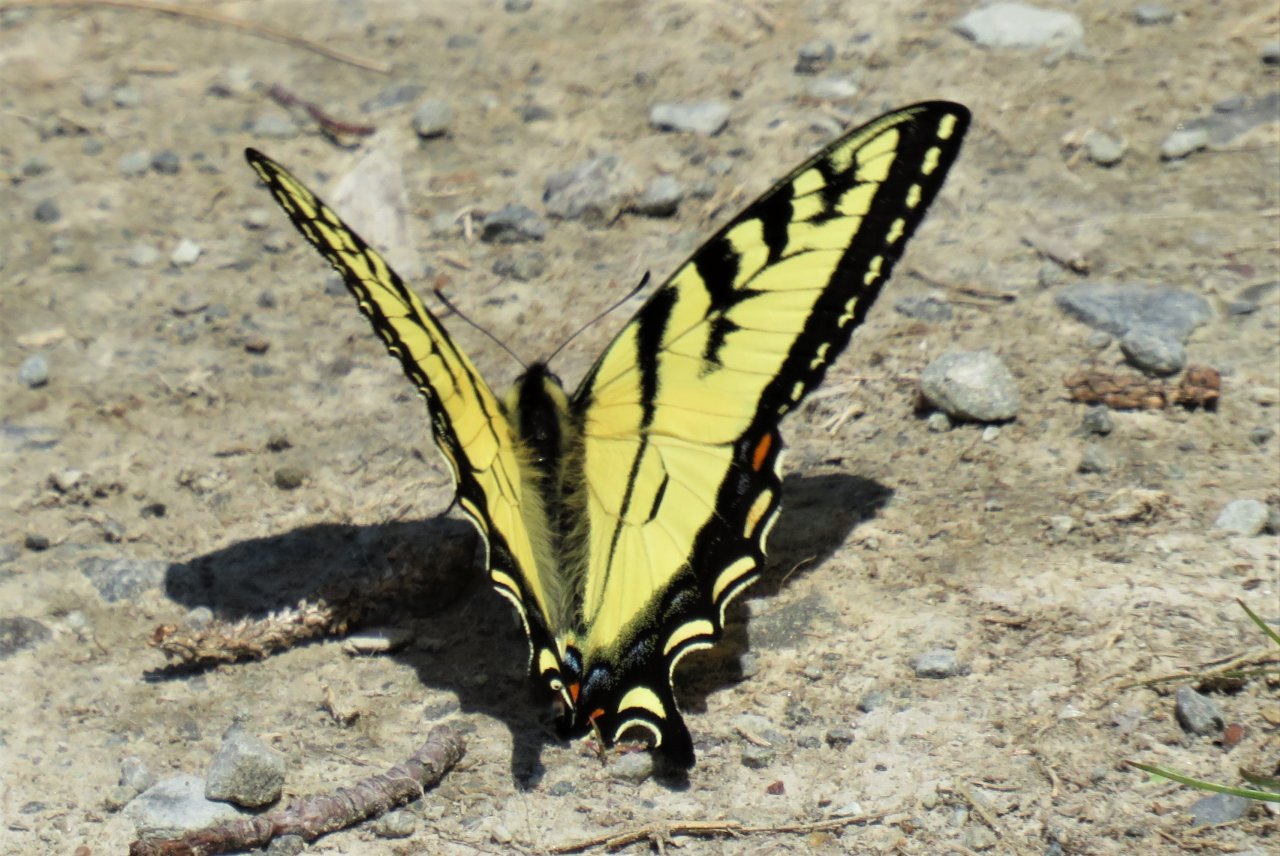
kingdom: Animalia
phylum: Arthropoda
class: Insecta
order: Lepidoptera
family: Papilionidae
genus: Pterourus
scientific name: Pterourus canadensis
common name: Canadian Tiger Swallowtail
